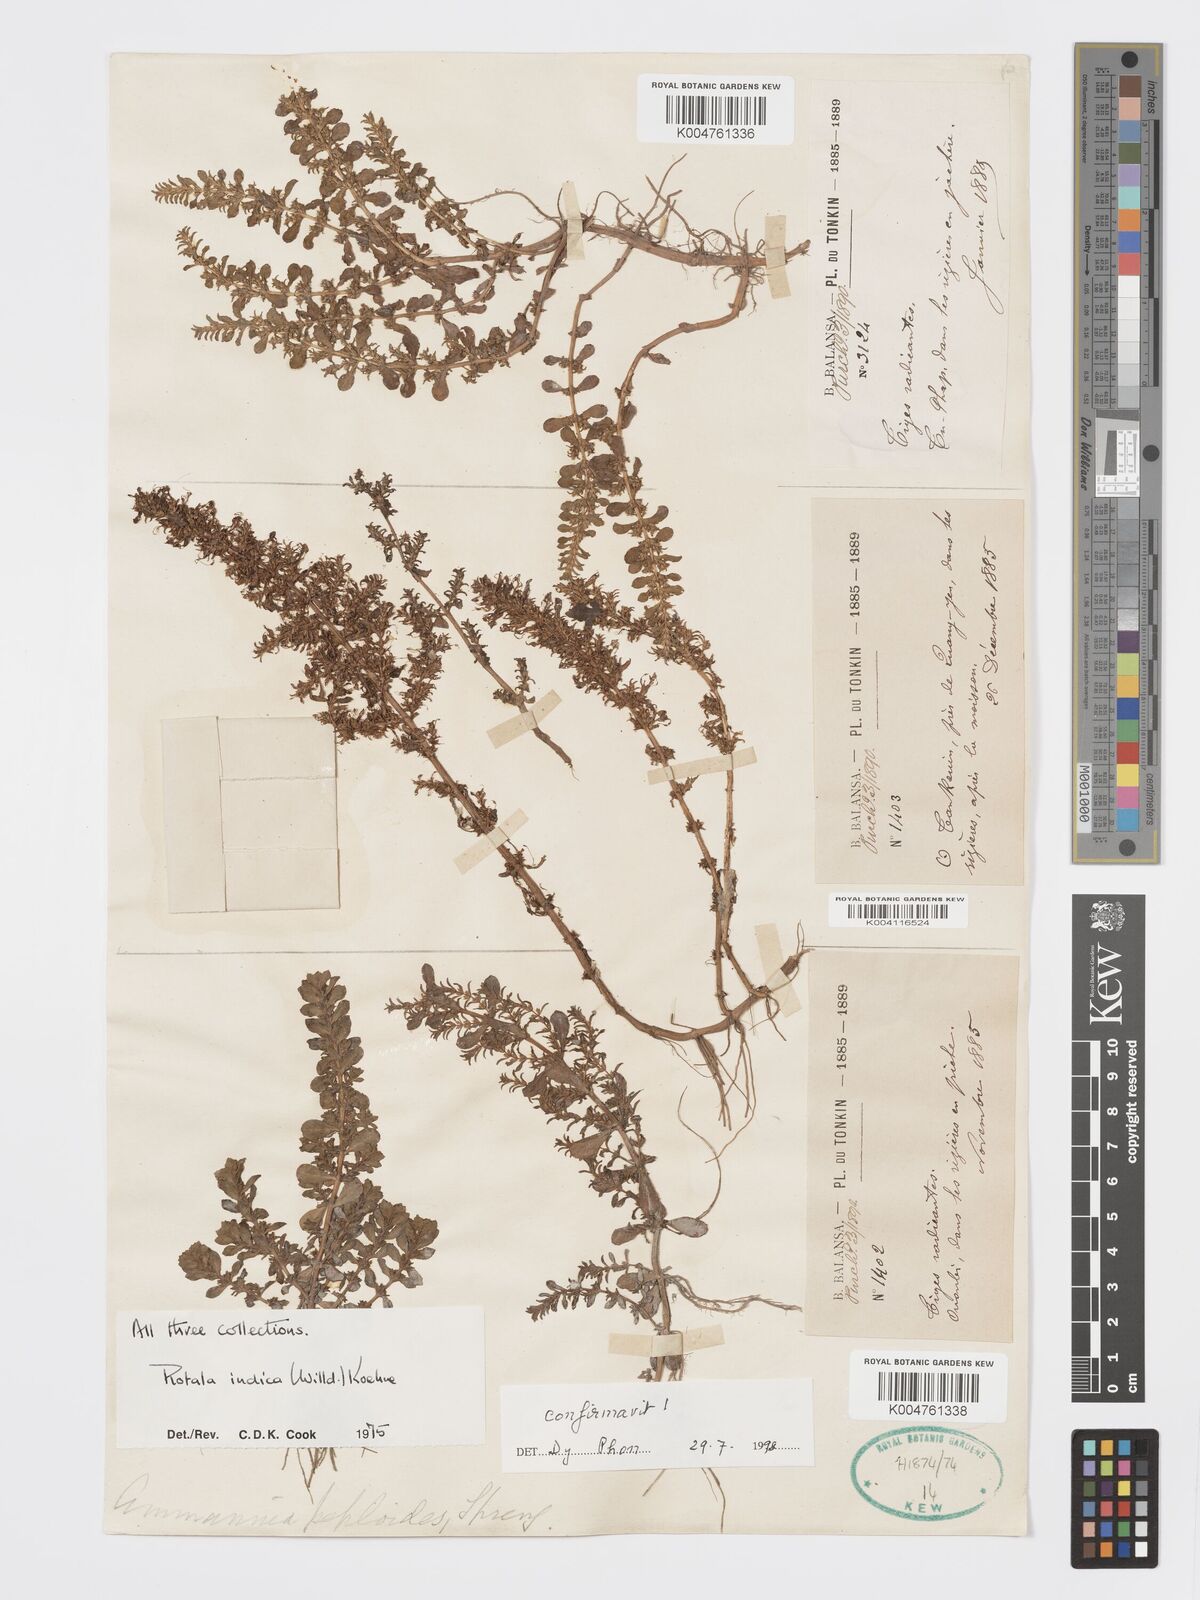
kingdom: Plantae
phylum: Tracheophyta
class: Magnoliopsida
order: Myrtales
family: Lythraceae
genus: Rotala
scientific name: Rotala indica
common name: Indian toothcup
